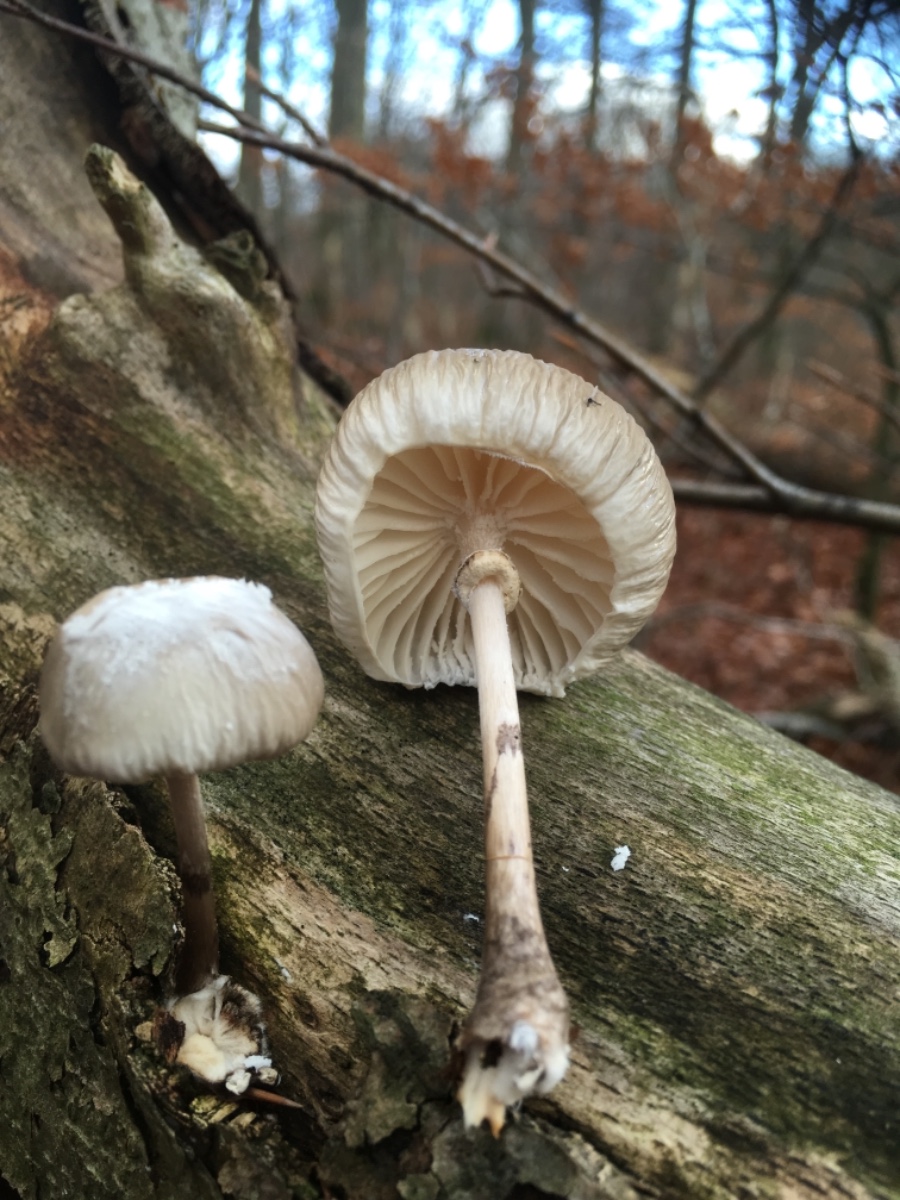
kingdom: Fungi
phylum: Basidiomycota
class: Agaricomycetes
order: Agaricales
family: Physalacriaceae
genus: Mucidula
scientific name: Mucidula mucida
